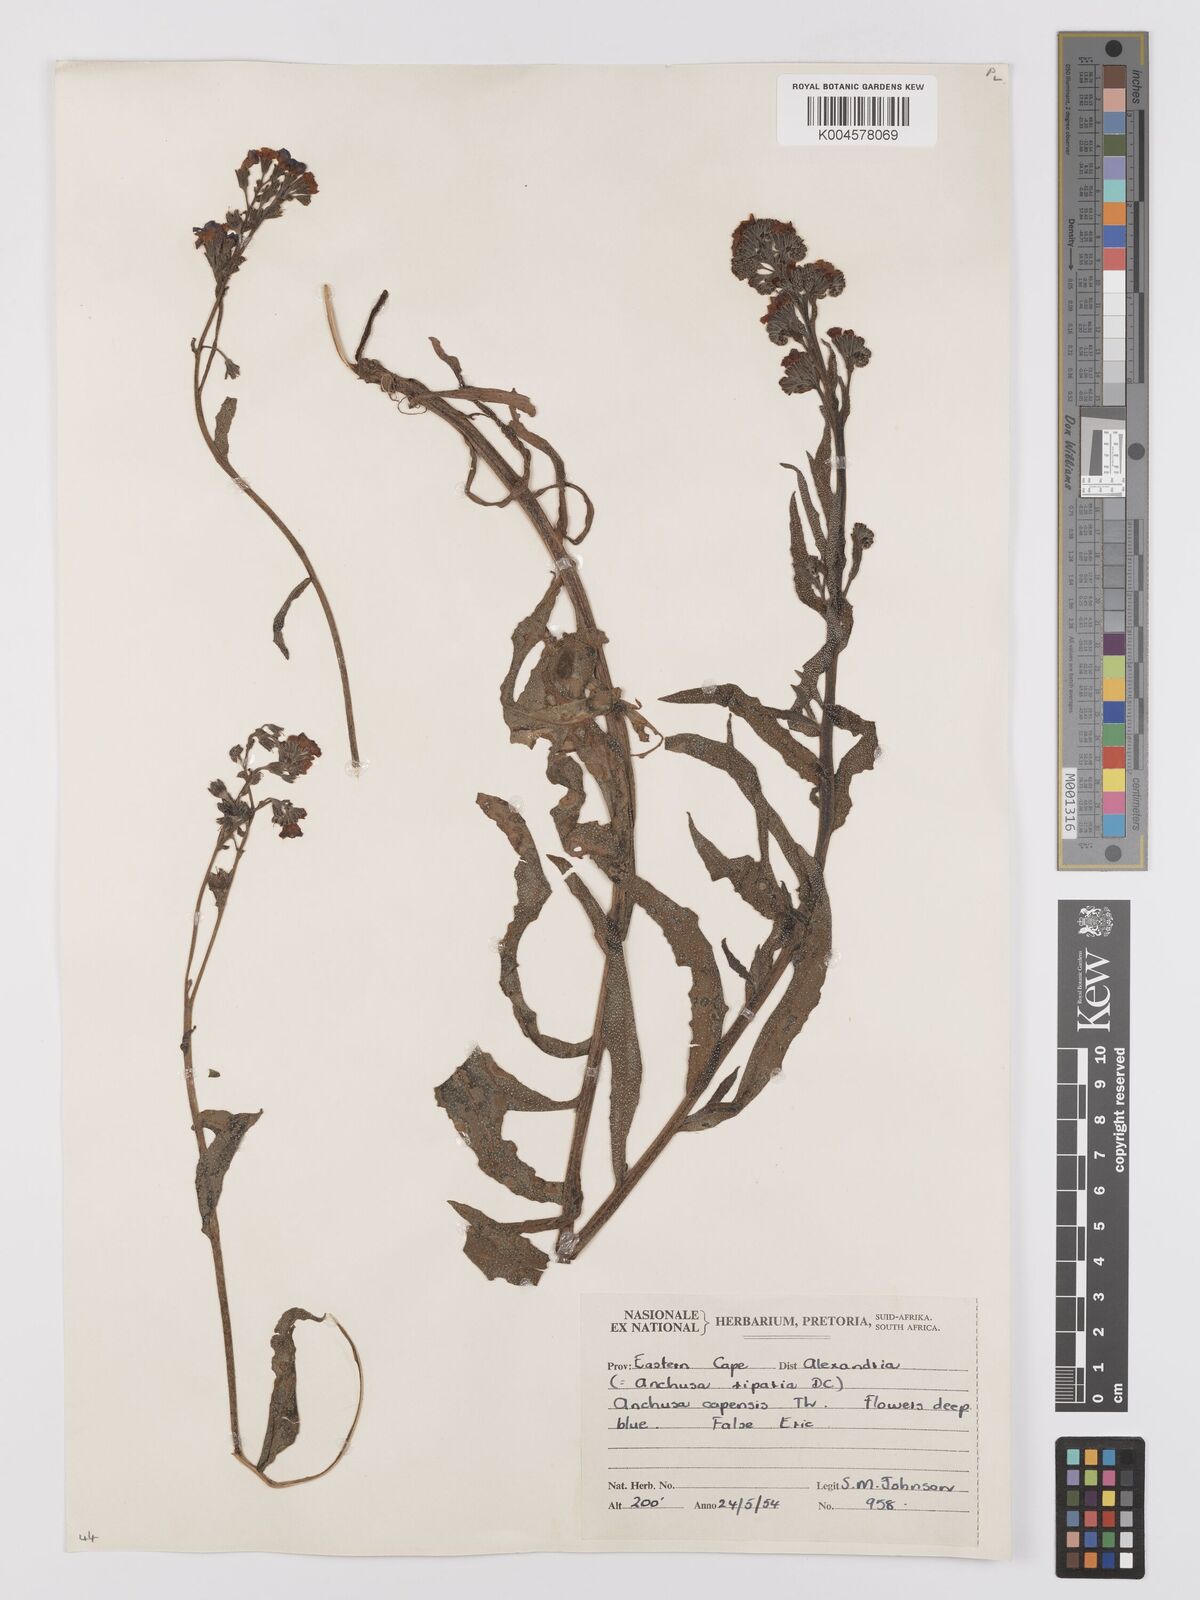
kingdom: Plantae
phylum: Tracheophyta
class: Magnoliopsida
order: Boraginales
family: Boraginaceae
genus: Anchusa
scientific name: Anchusa capensis
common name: Cape bugloss
